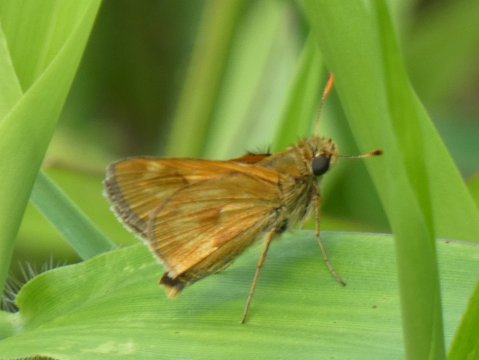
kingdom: Animalia
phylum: Arthropoda
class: Insecta
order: Lepidoptera
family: Hesperiidae
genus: Polites
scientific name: Polites
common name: Long Dash Skipper
